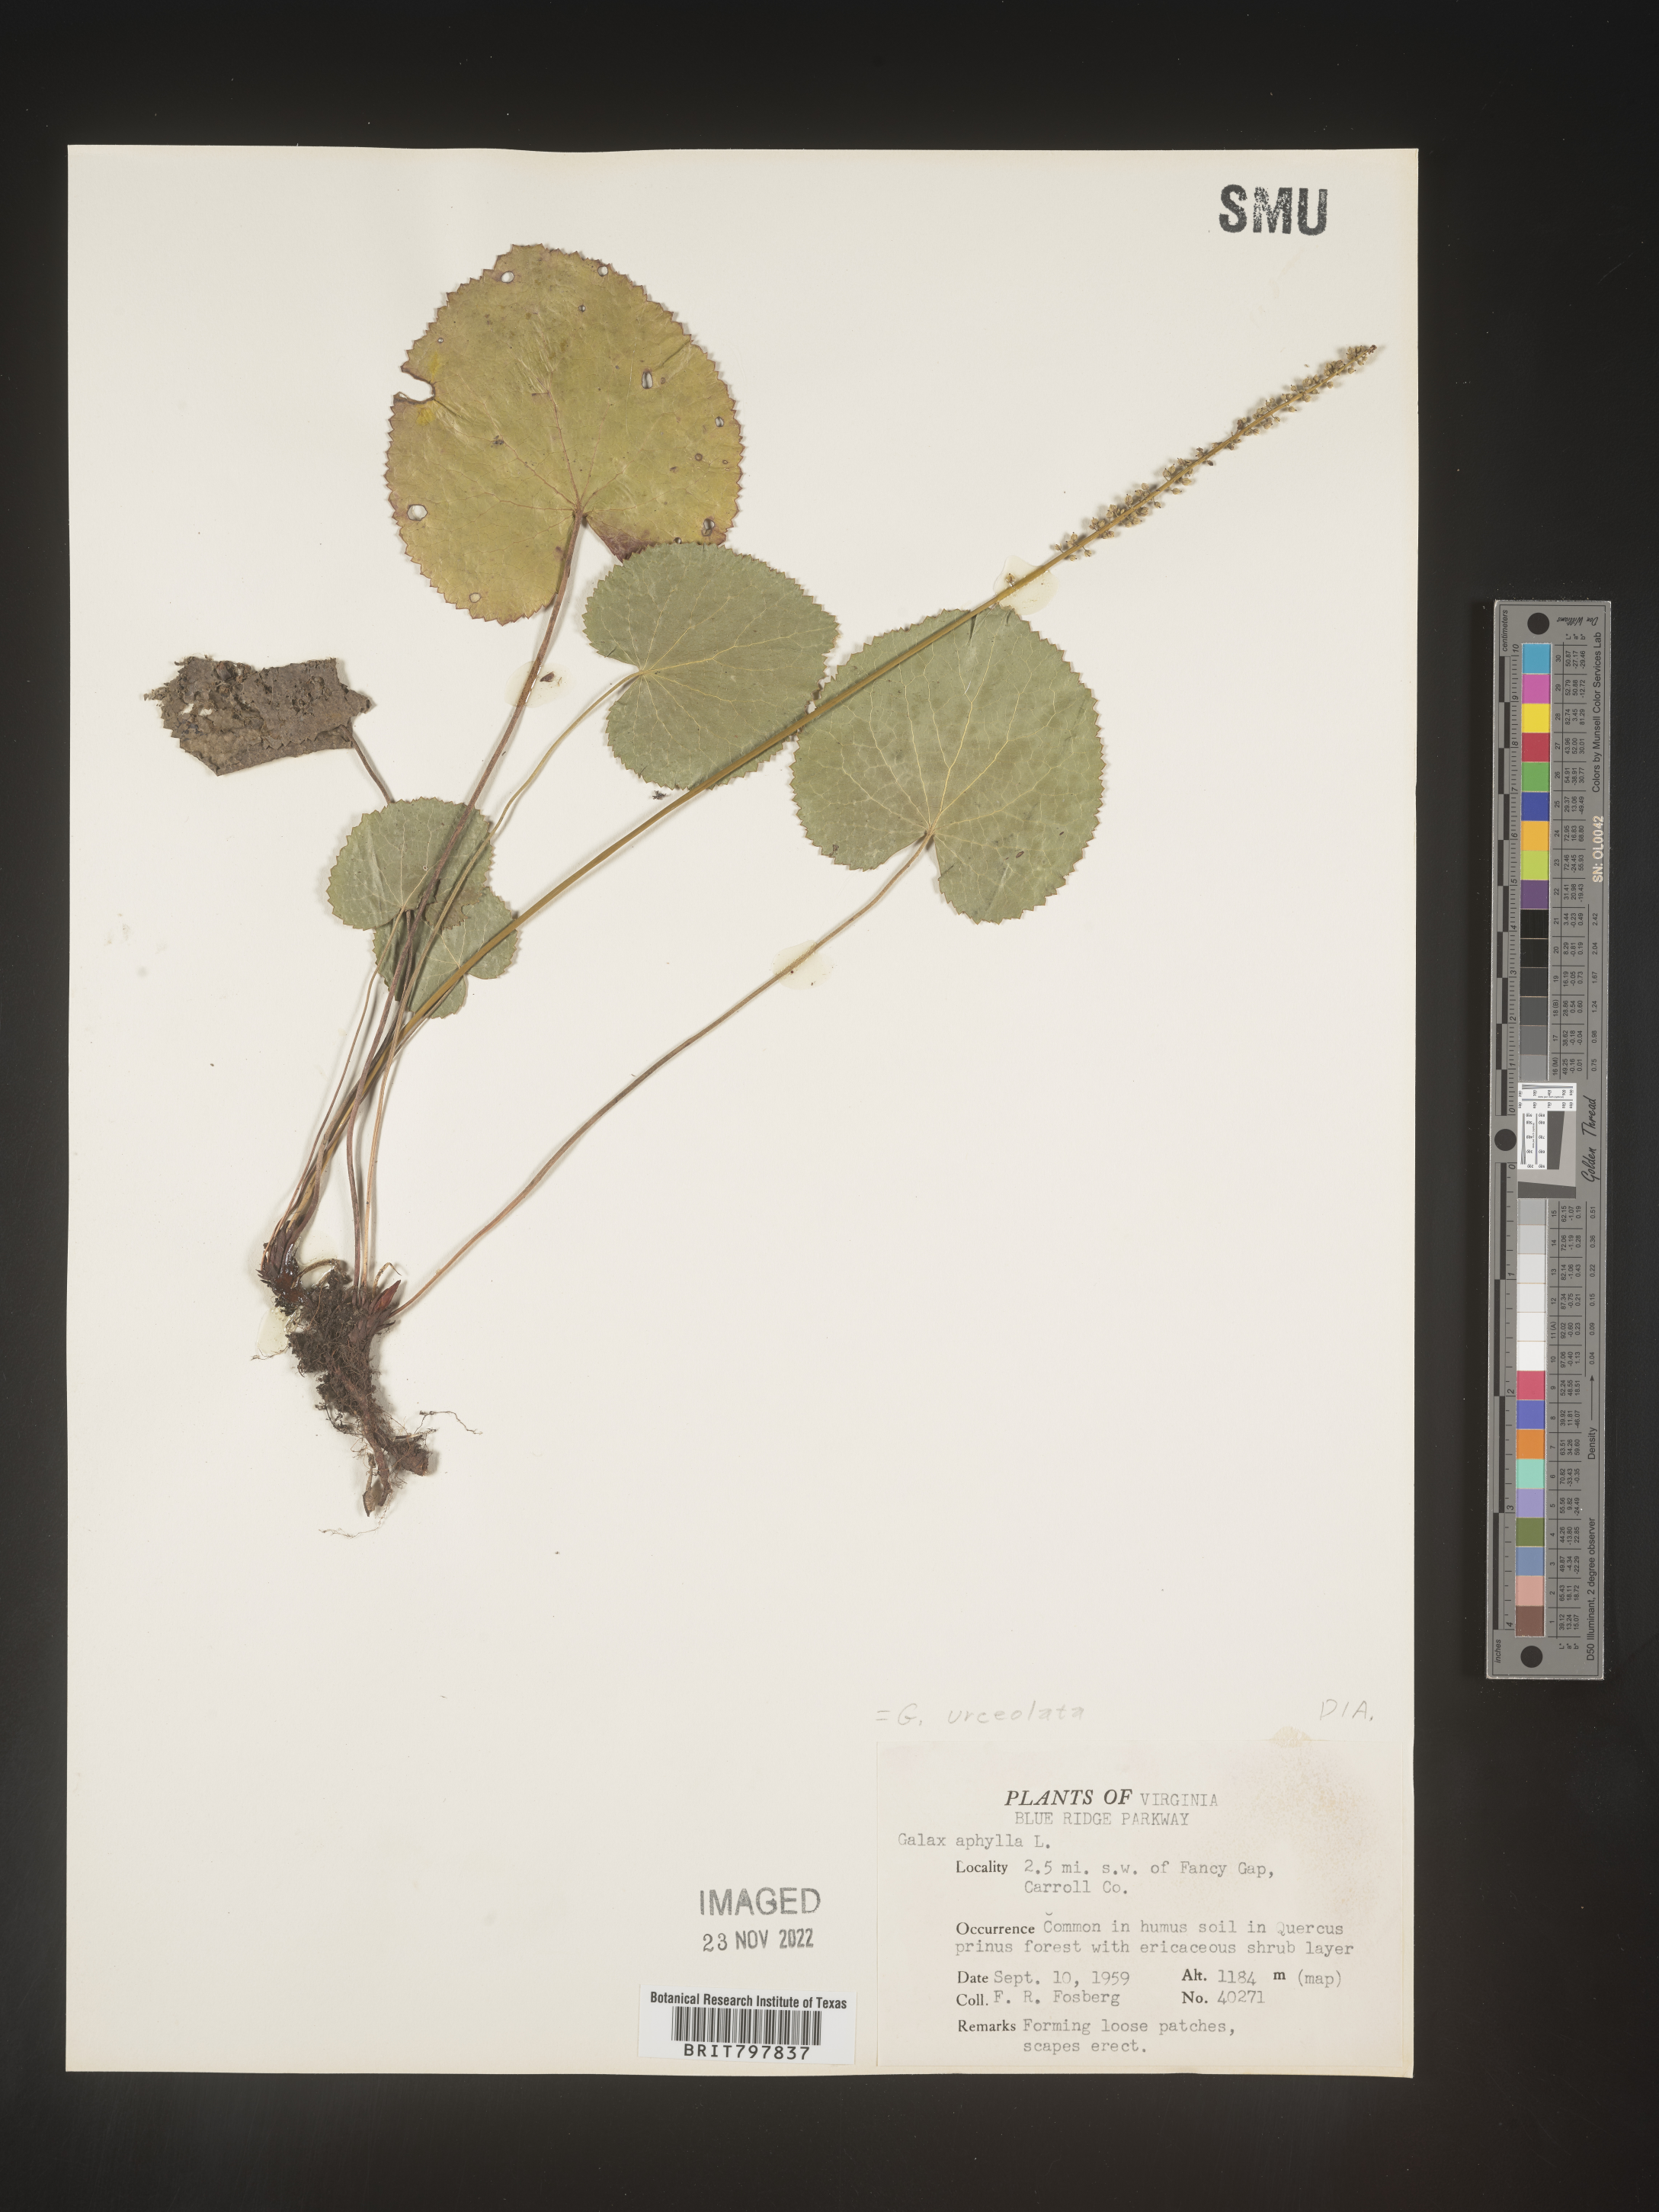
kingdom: Plantae
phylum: Tracheophyta
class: Magnoliopsida
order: Ericales
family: Diapensiaceae
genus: Galax
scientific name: Galax
